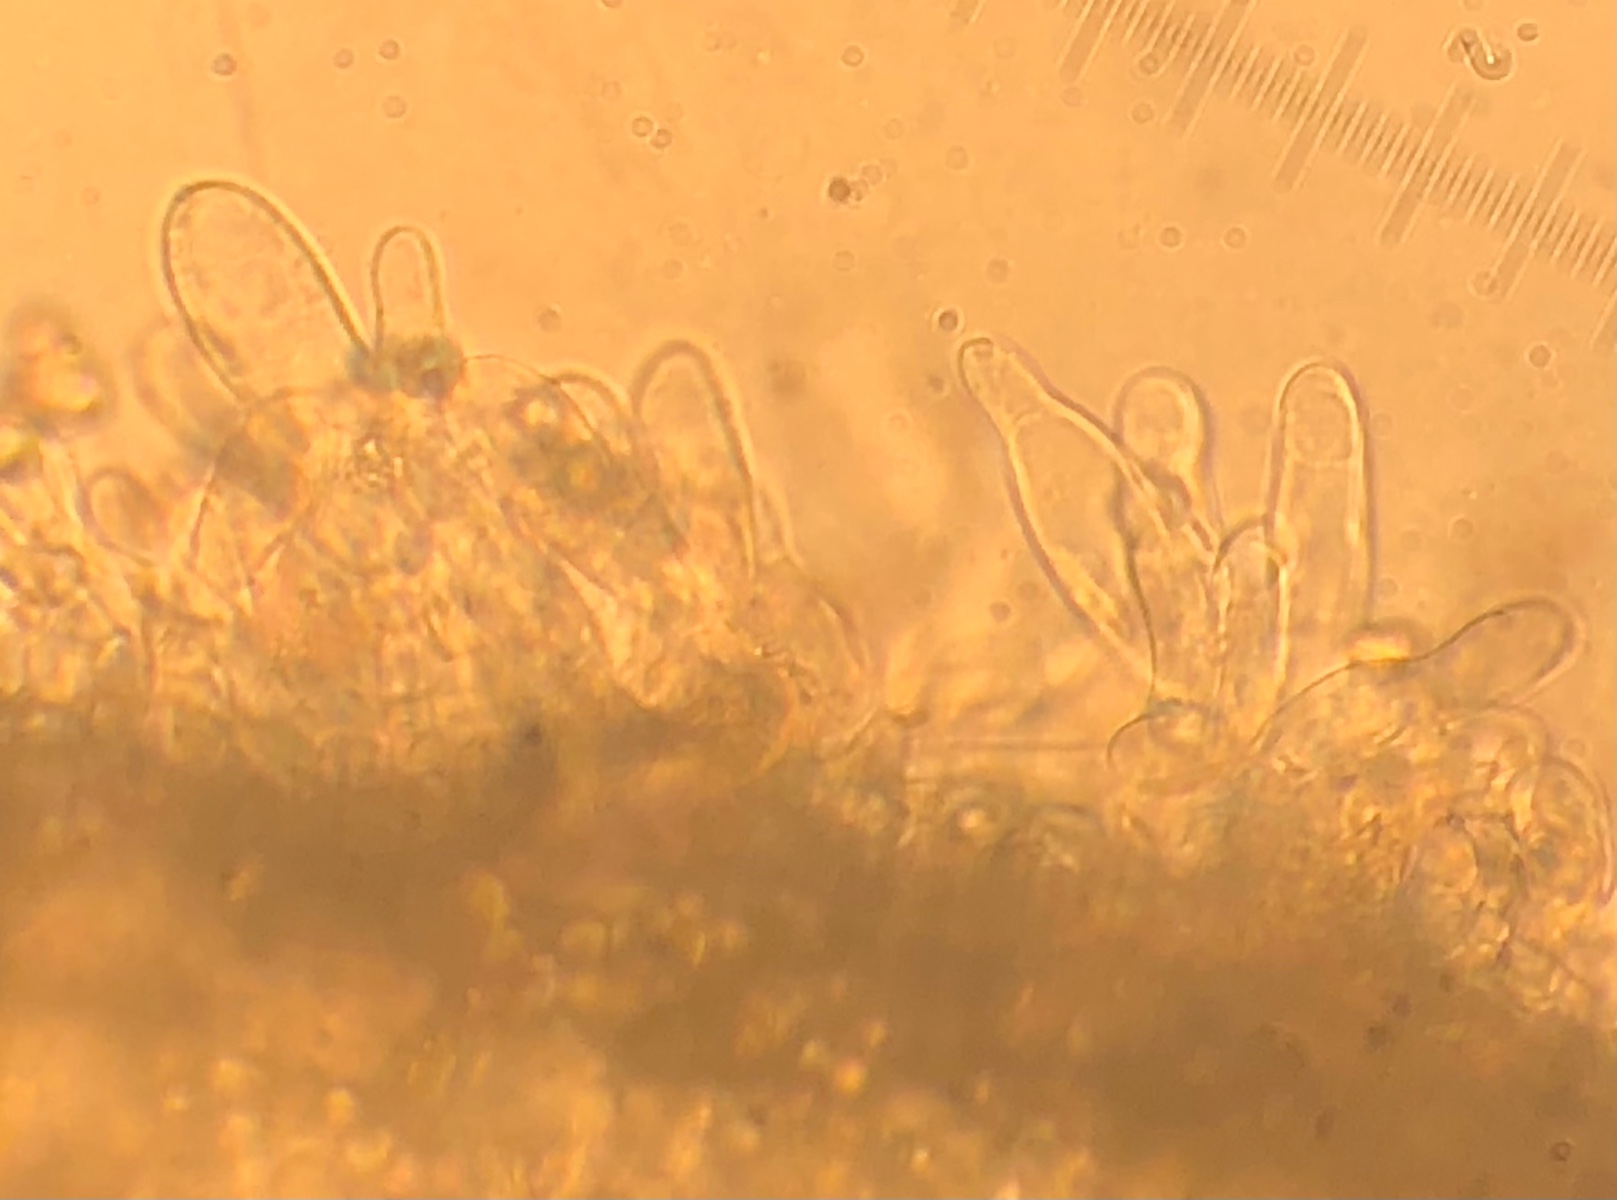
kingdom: Fungi
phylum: Basidiomycota
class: Agaricomycetes
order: Agaricales
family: Entolomataceae
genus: Entoloma
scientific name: Entoloma
